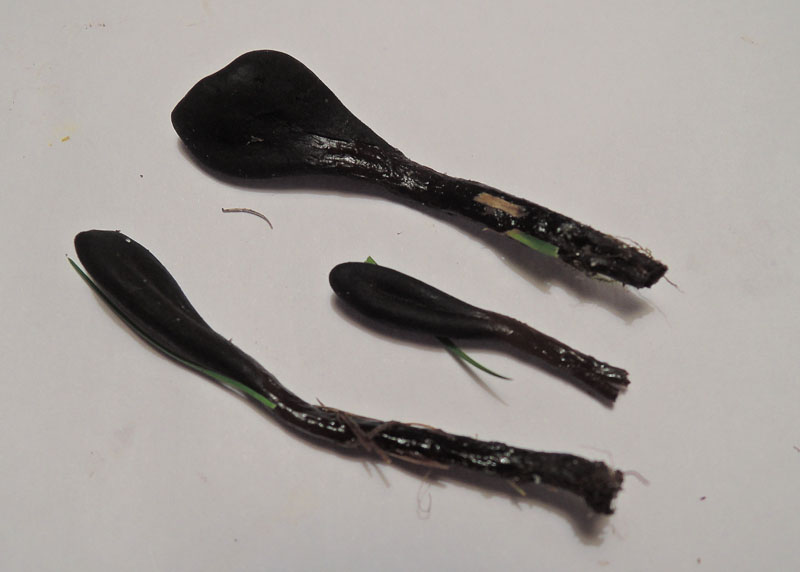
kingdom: Fungi
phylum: Ascomycota
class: Geoglossomycetes
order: Geoglossales
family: Geoglossaceae
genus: Glutinoglossum
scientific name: Glutinoglossum glutinosum
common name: slimet jordtunge
